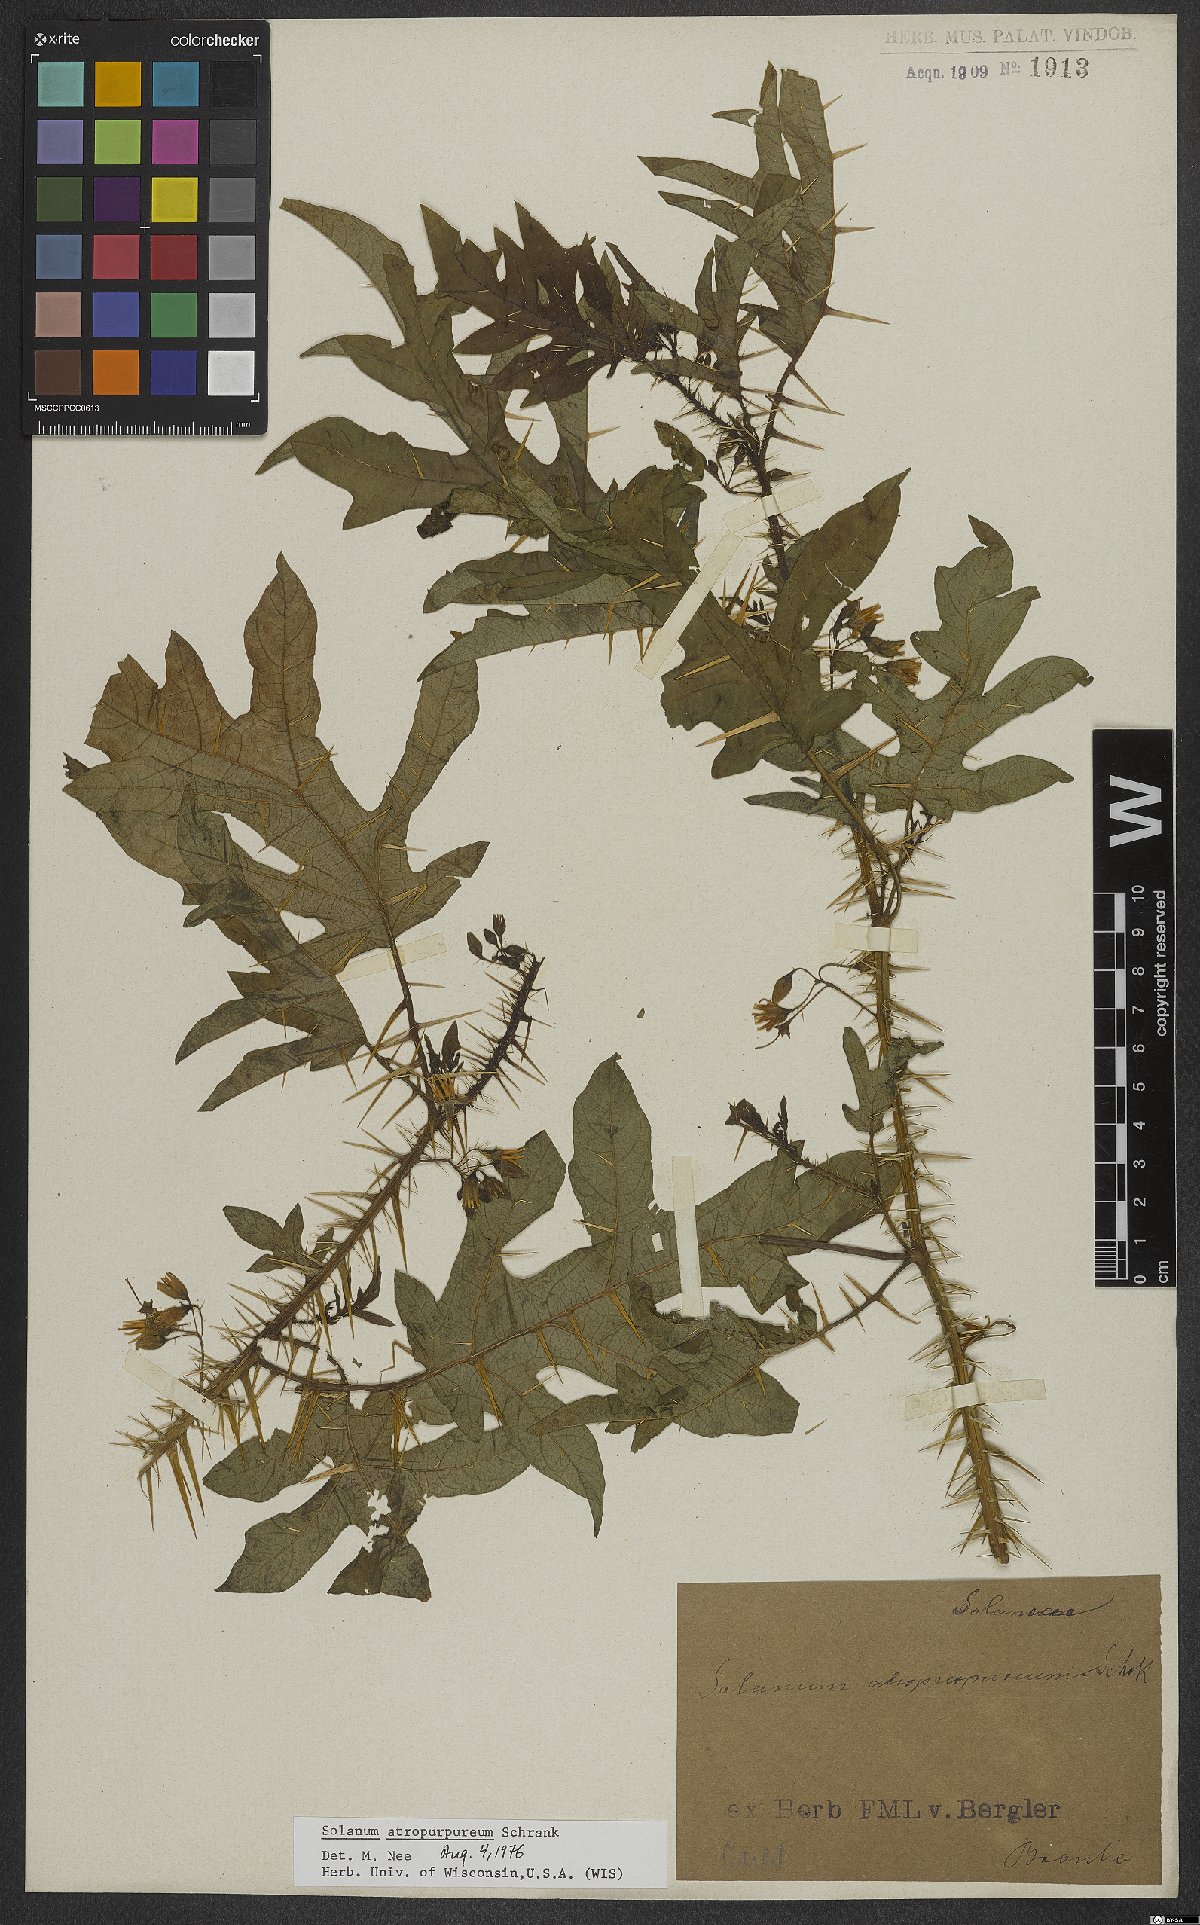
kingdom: Plantae
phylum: Tracheophyta
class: Magnoliopsida
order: Solanales
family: Solanaceae
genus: Solanum
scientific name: Solanum atropurpureum
